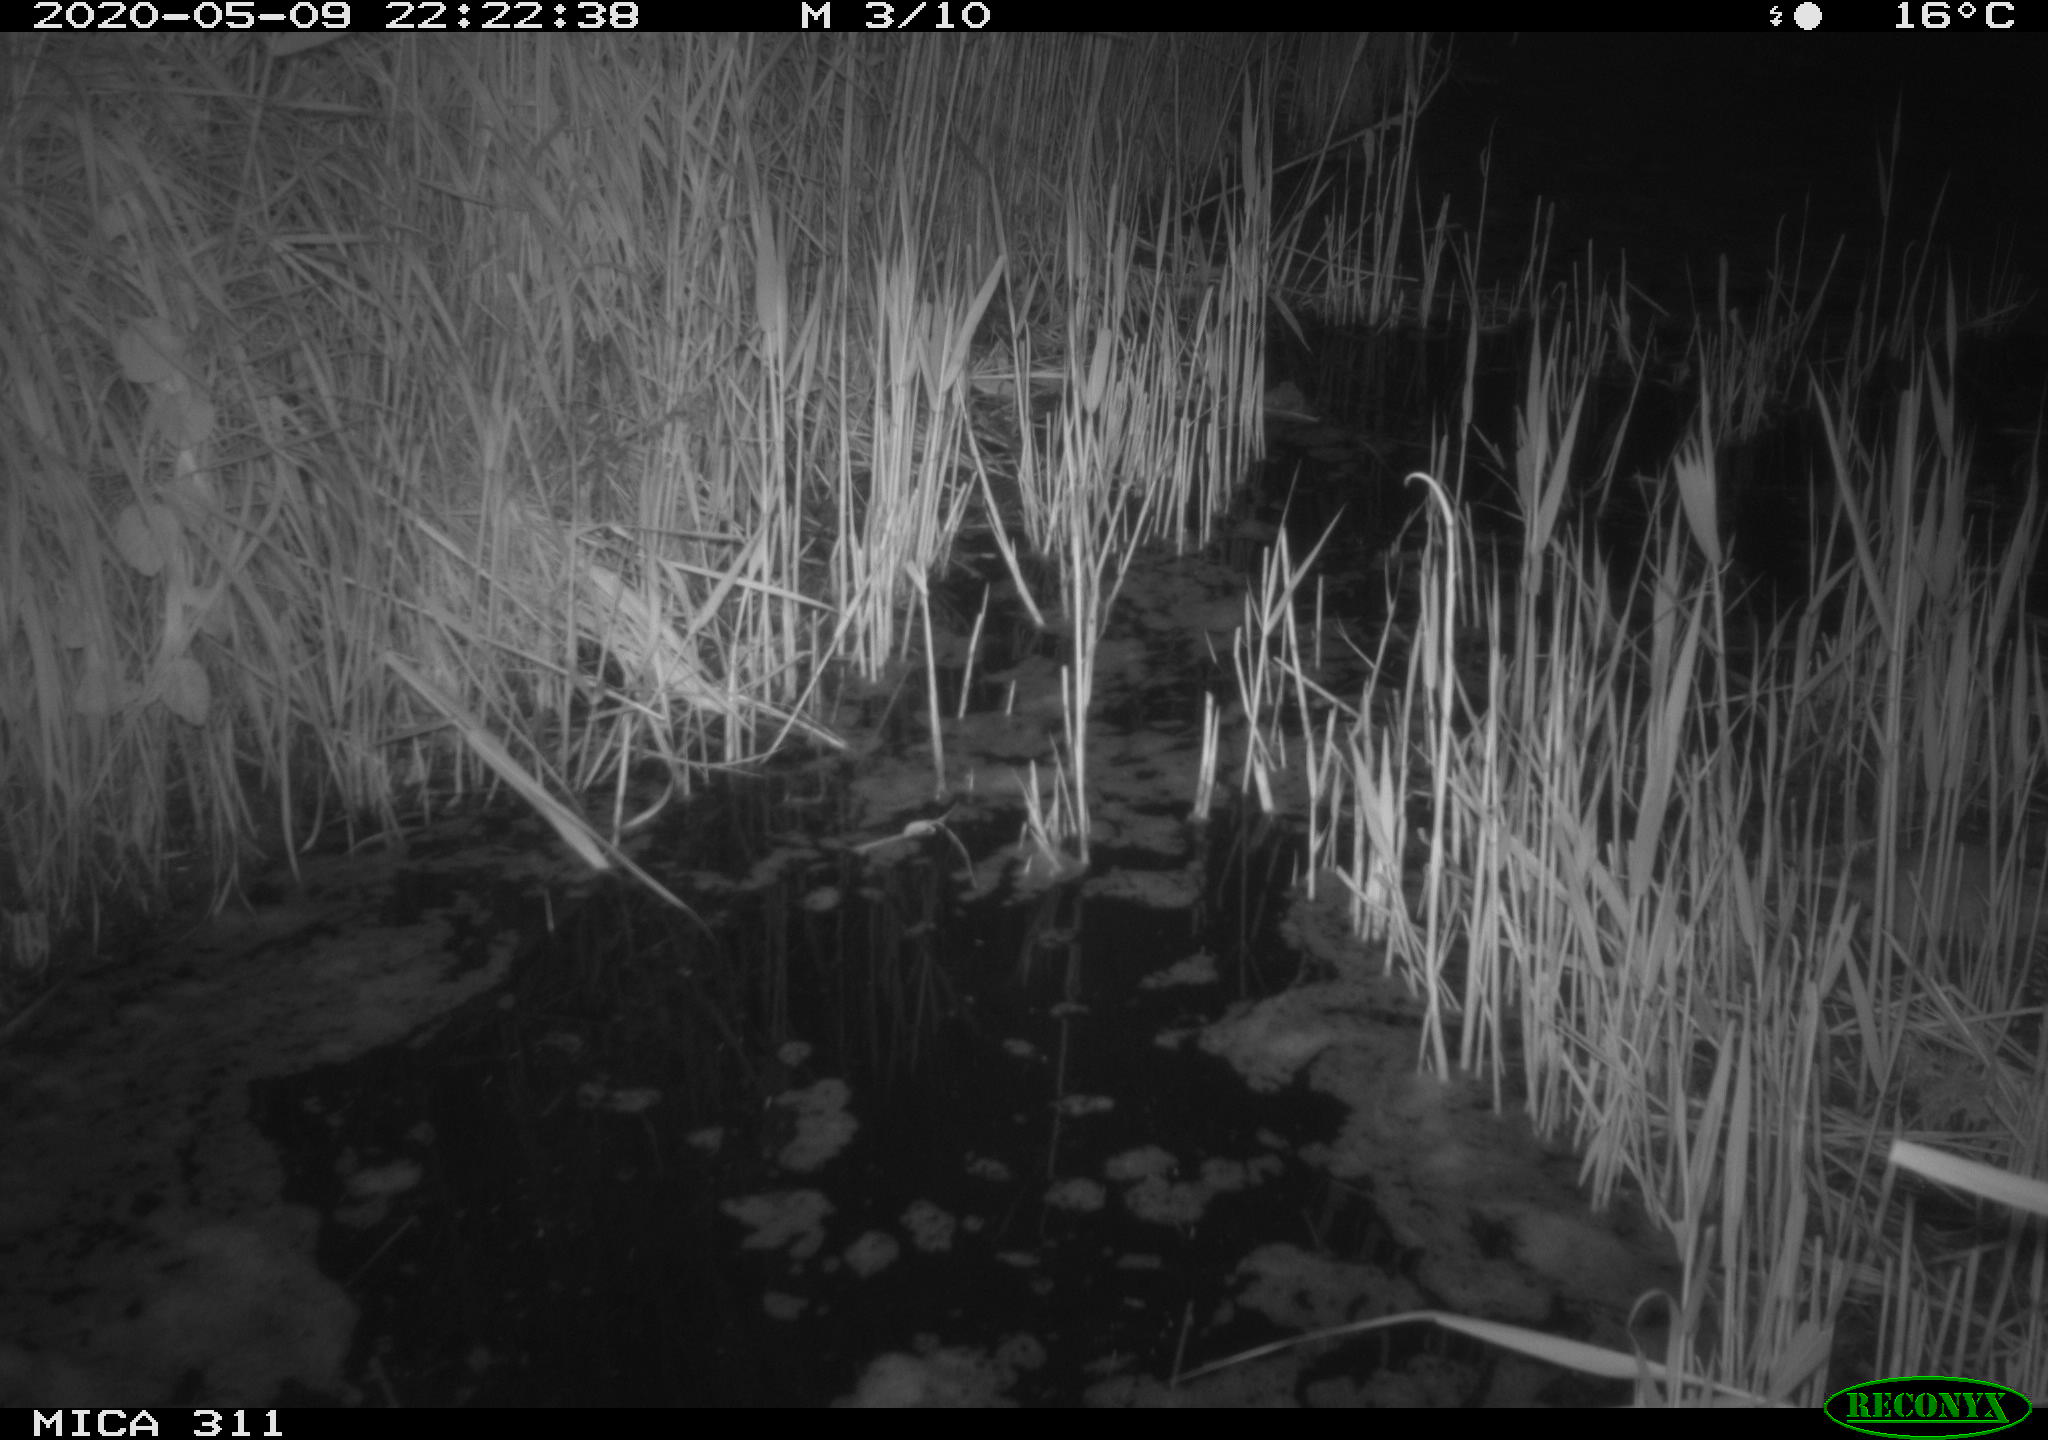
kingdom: Animalia
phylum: Chordata
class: Mammalia
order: Rodentia
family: Muridae
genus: Rattus
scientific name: Rattus norvegicus
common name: Brown rat
